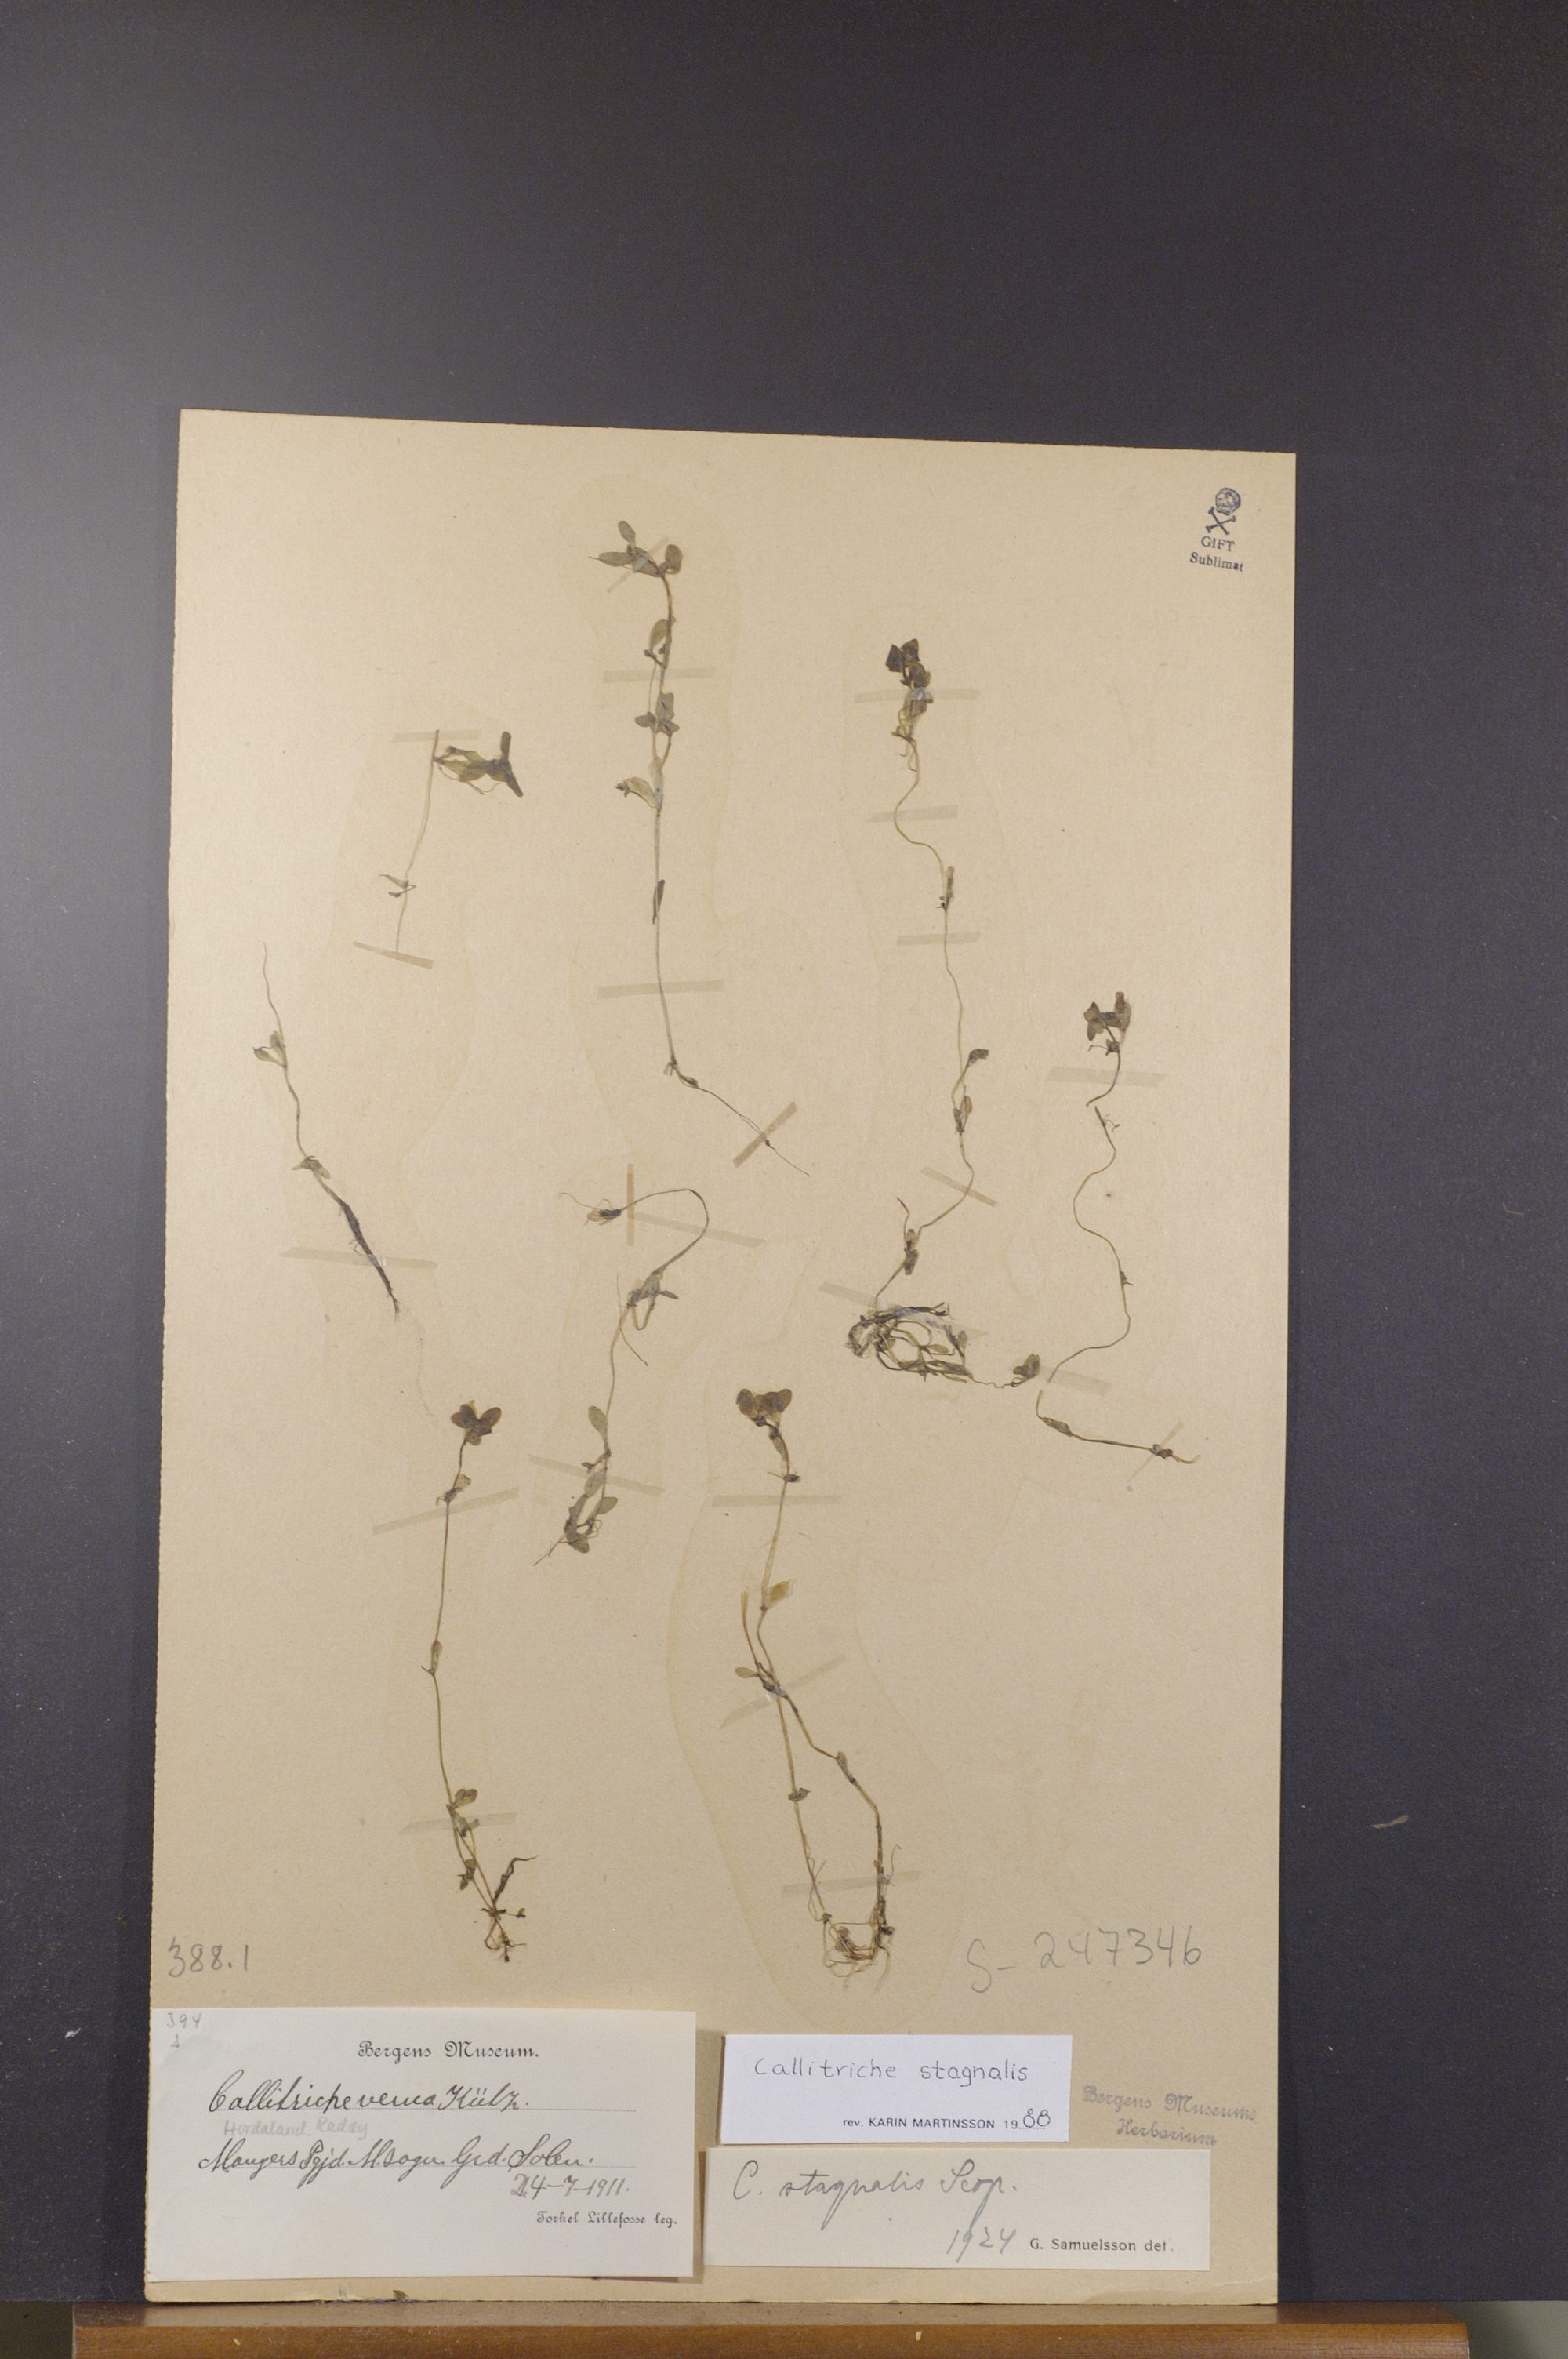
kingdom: Plantae
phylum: Tracheophyta
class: Magnoliopsida
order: Lamiales
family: Plantaginaceae
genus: Callitriche
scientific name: Callitriche stagnalis
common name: Common water-starwort
